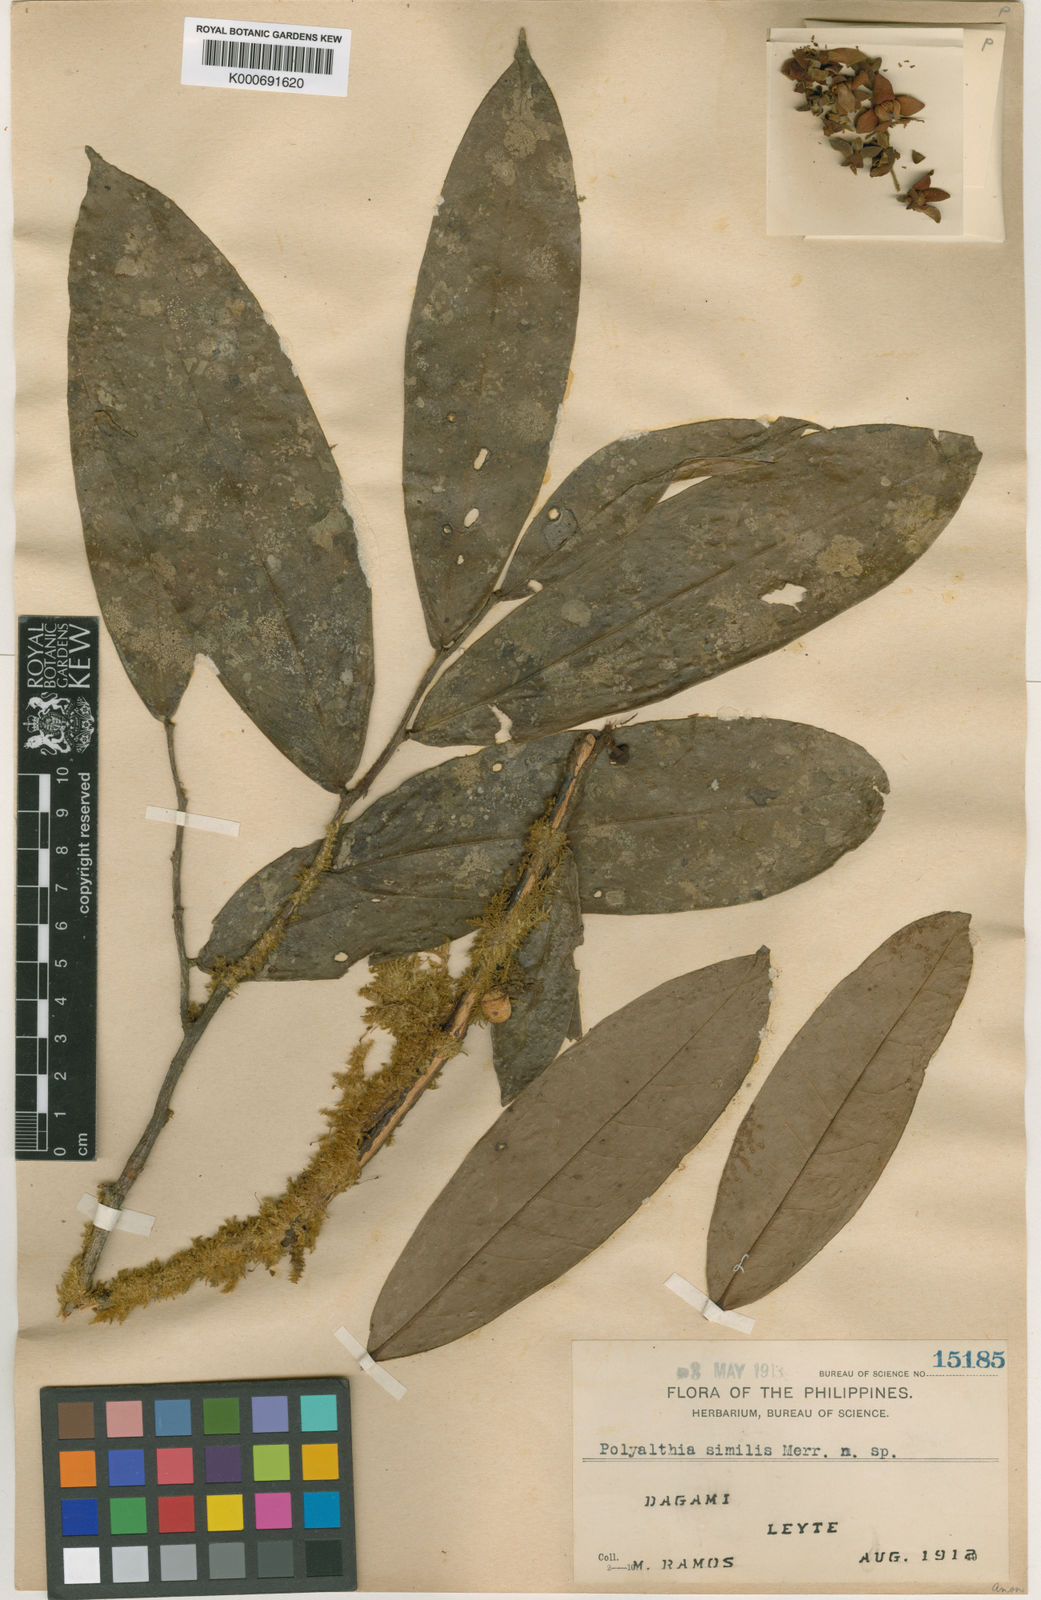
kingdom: Plantae
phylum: Tracheophyta
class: Magnoliopsida
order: Magnoliales
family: Annonaceae
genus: Polyalthia
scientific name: Polyalthia obliqua
